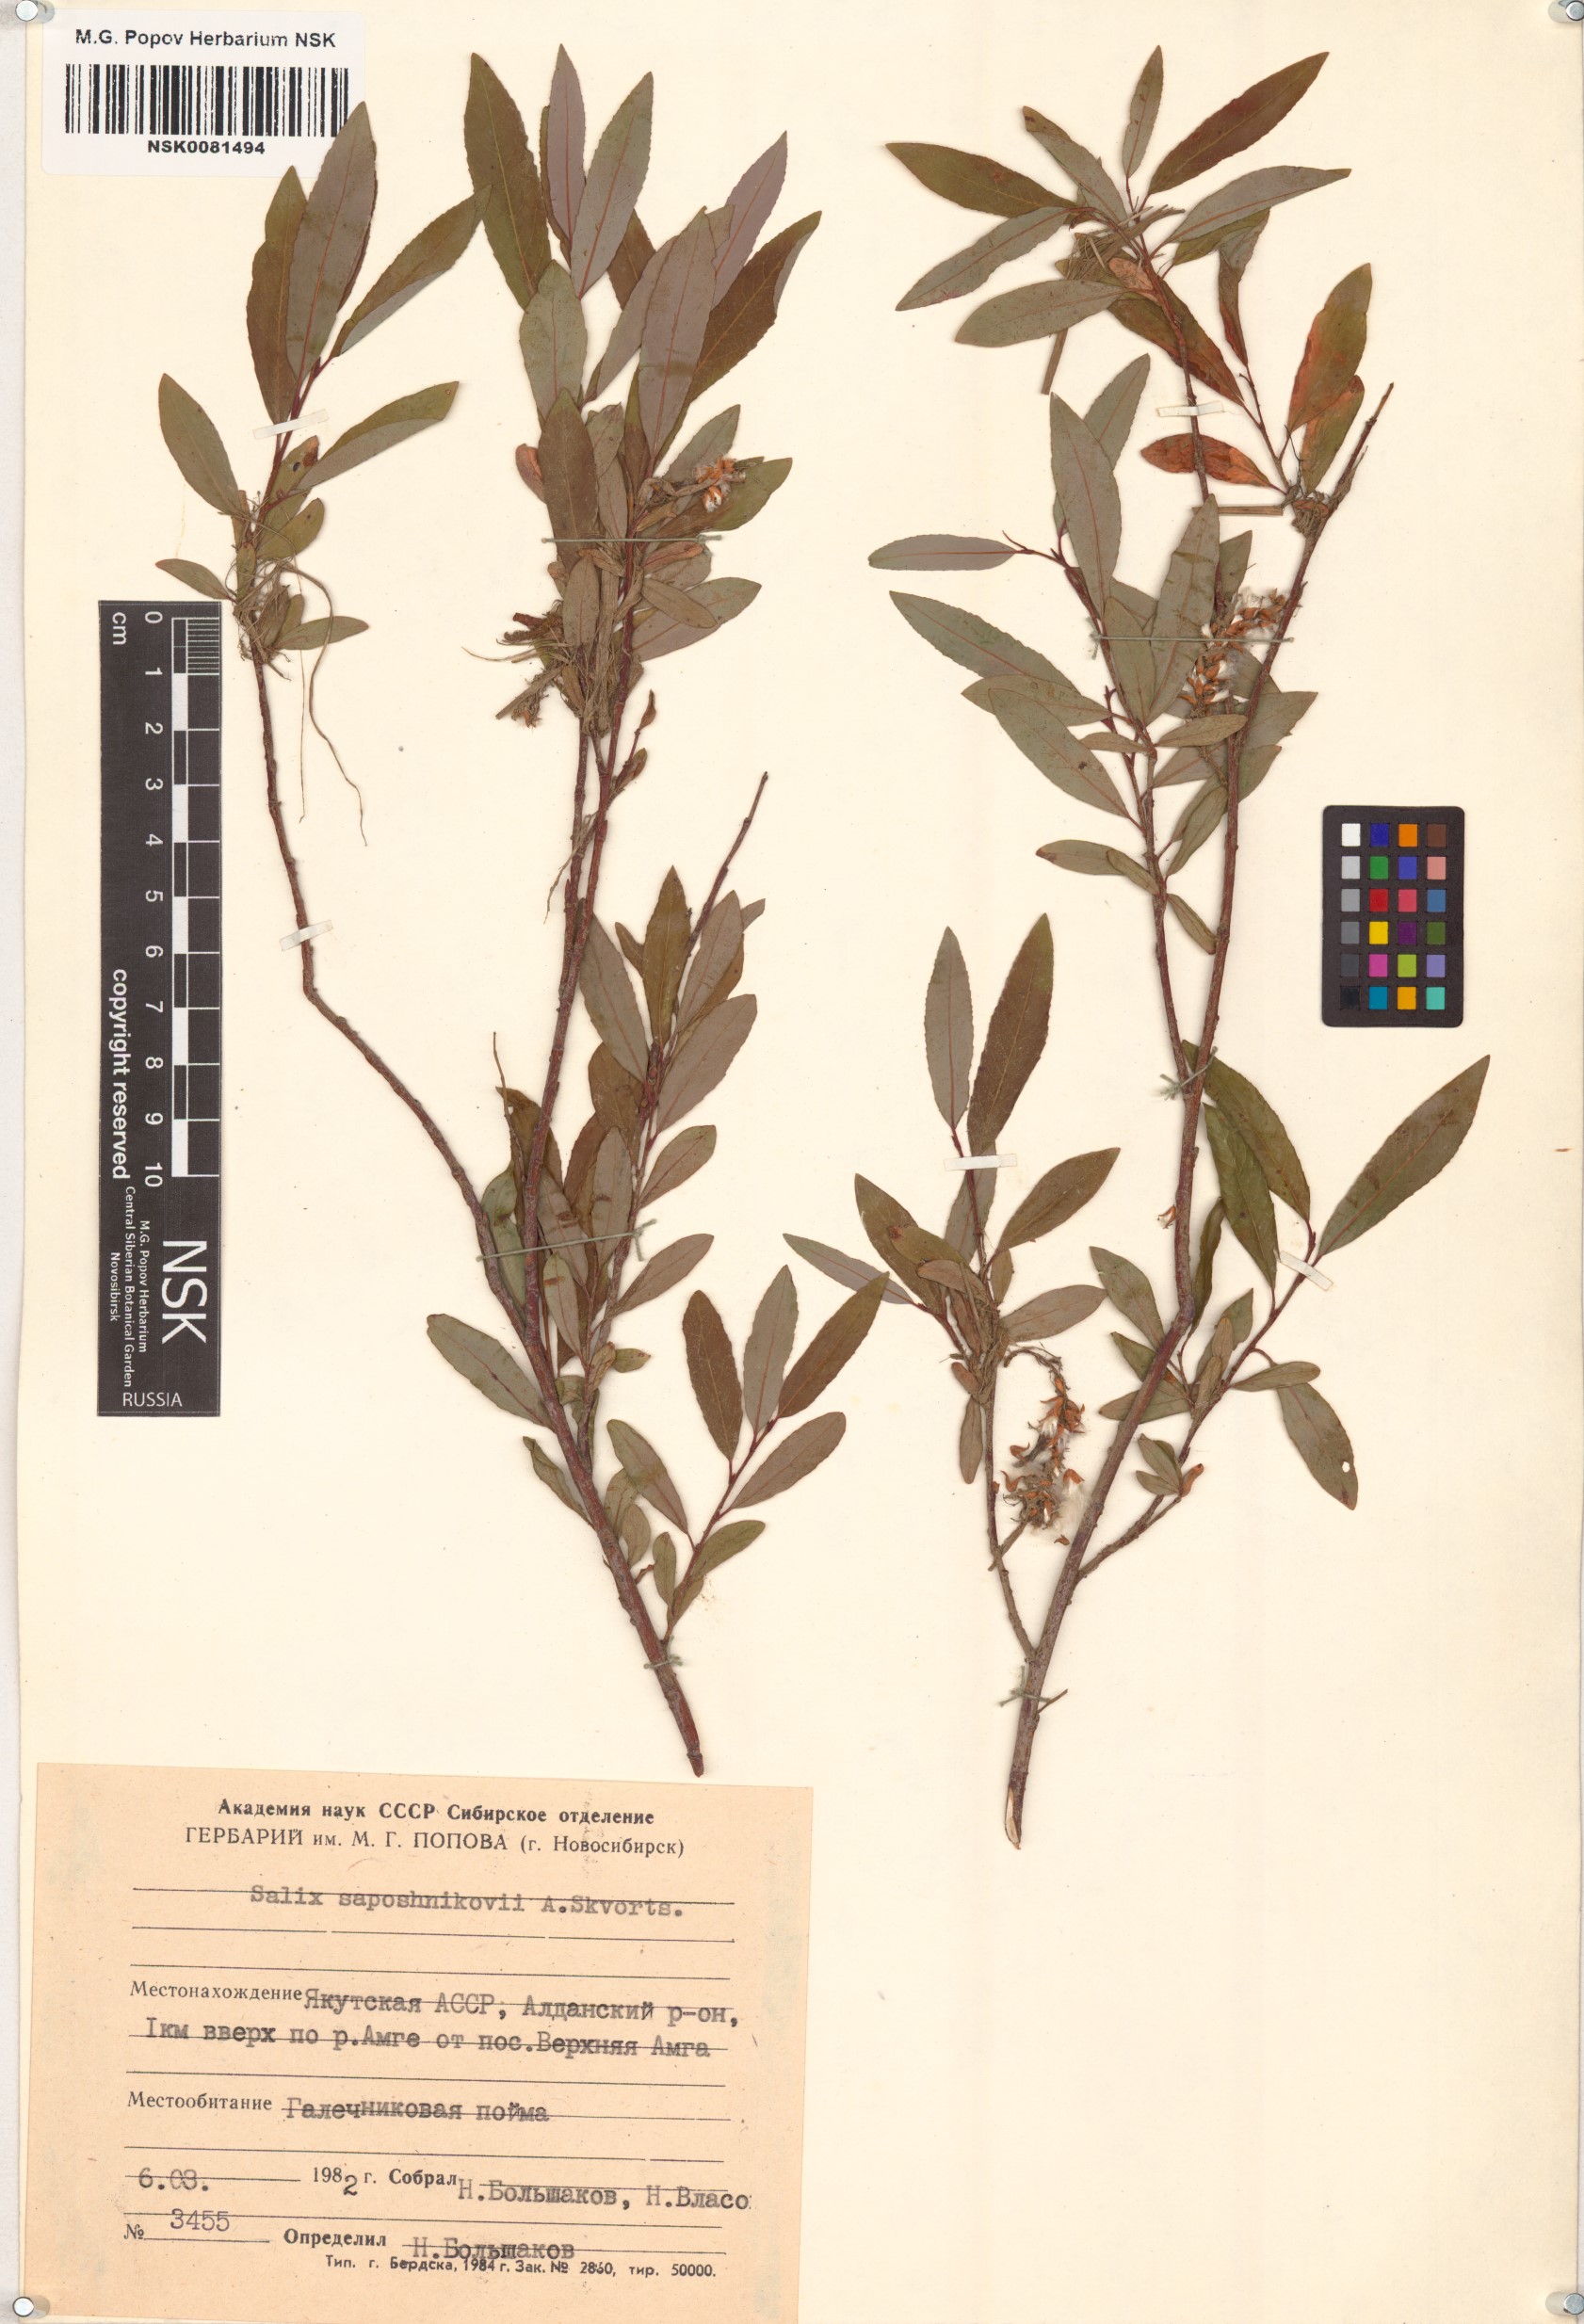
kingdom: Plantae
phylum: Tracheophyta
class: Magnoliopsida
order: Malpighiales
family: Salicaceae
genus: Salix
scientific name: Salix saposhnikovii
